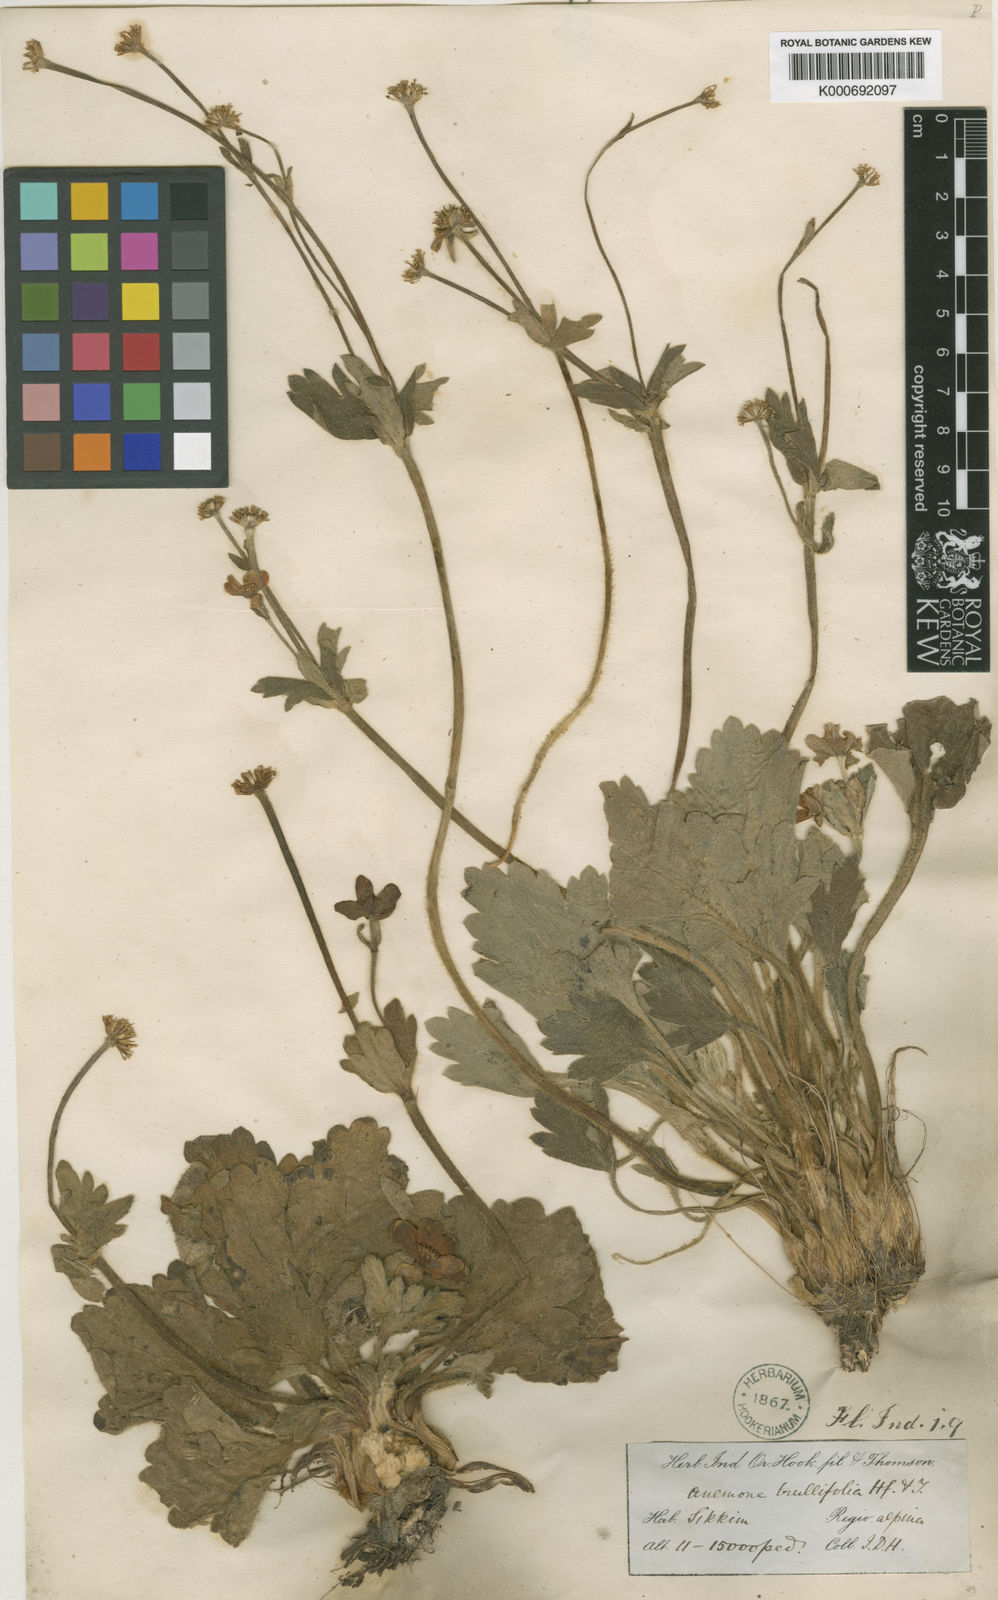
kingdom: Plantae
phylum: Tracheophyta
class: Magnoliopsida
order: Ranunculales
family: Ranunculaceae
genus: Anemonastrum
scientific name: Anemonastrum trullifolium
